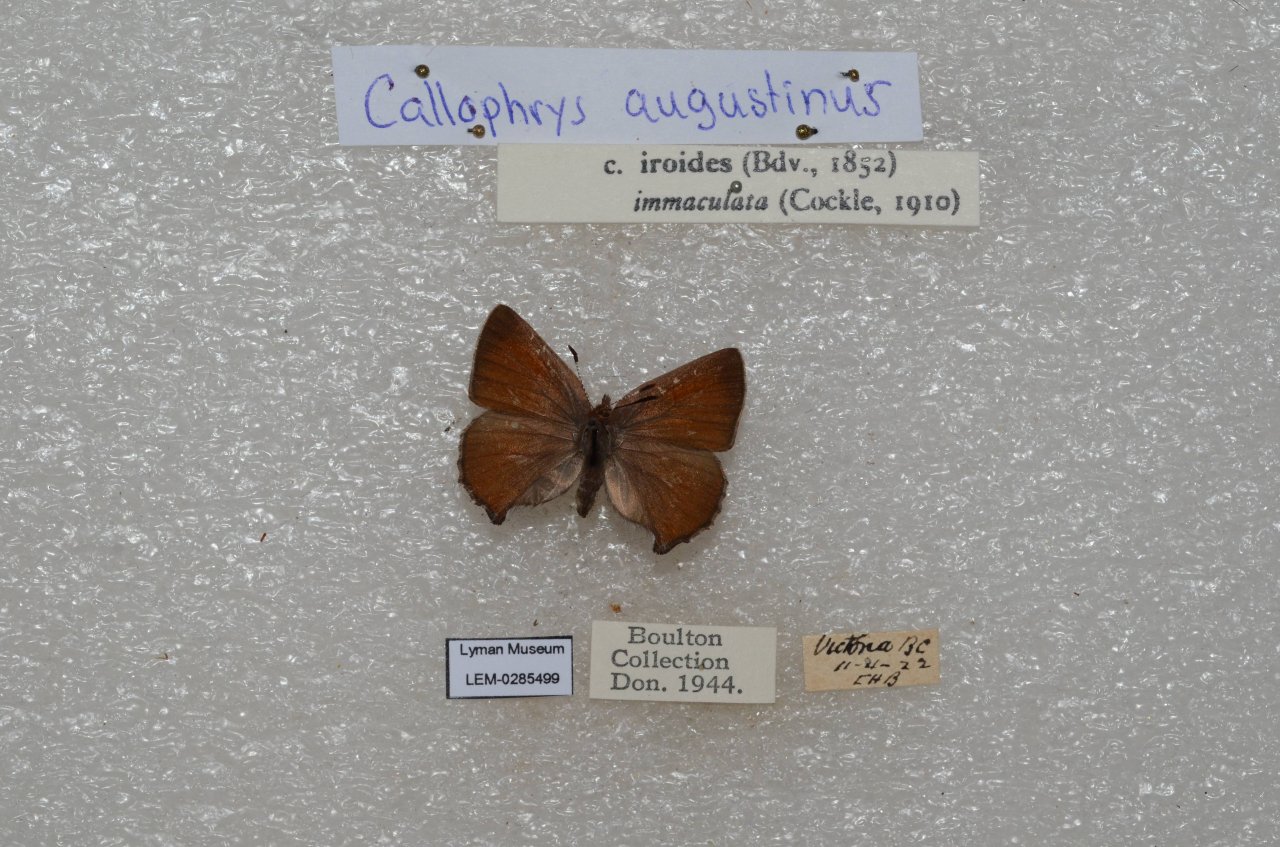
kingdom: Animalia
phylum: Arthropoda
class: Insecta
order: Lepidoptera
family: Lycaenidae
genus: Incisalia
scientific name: Incisalia irioides
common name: Brown Elfin
